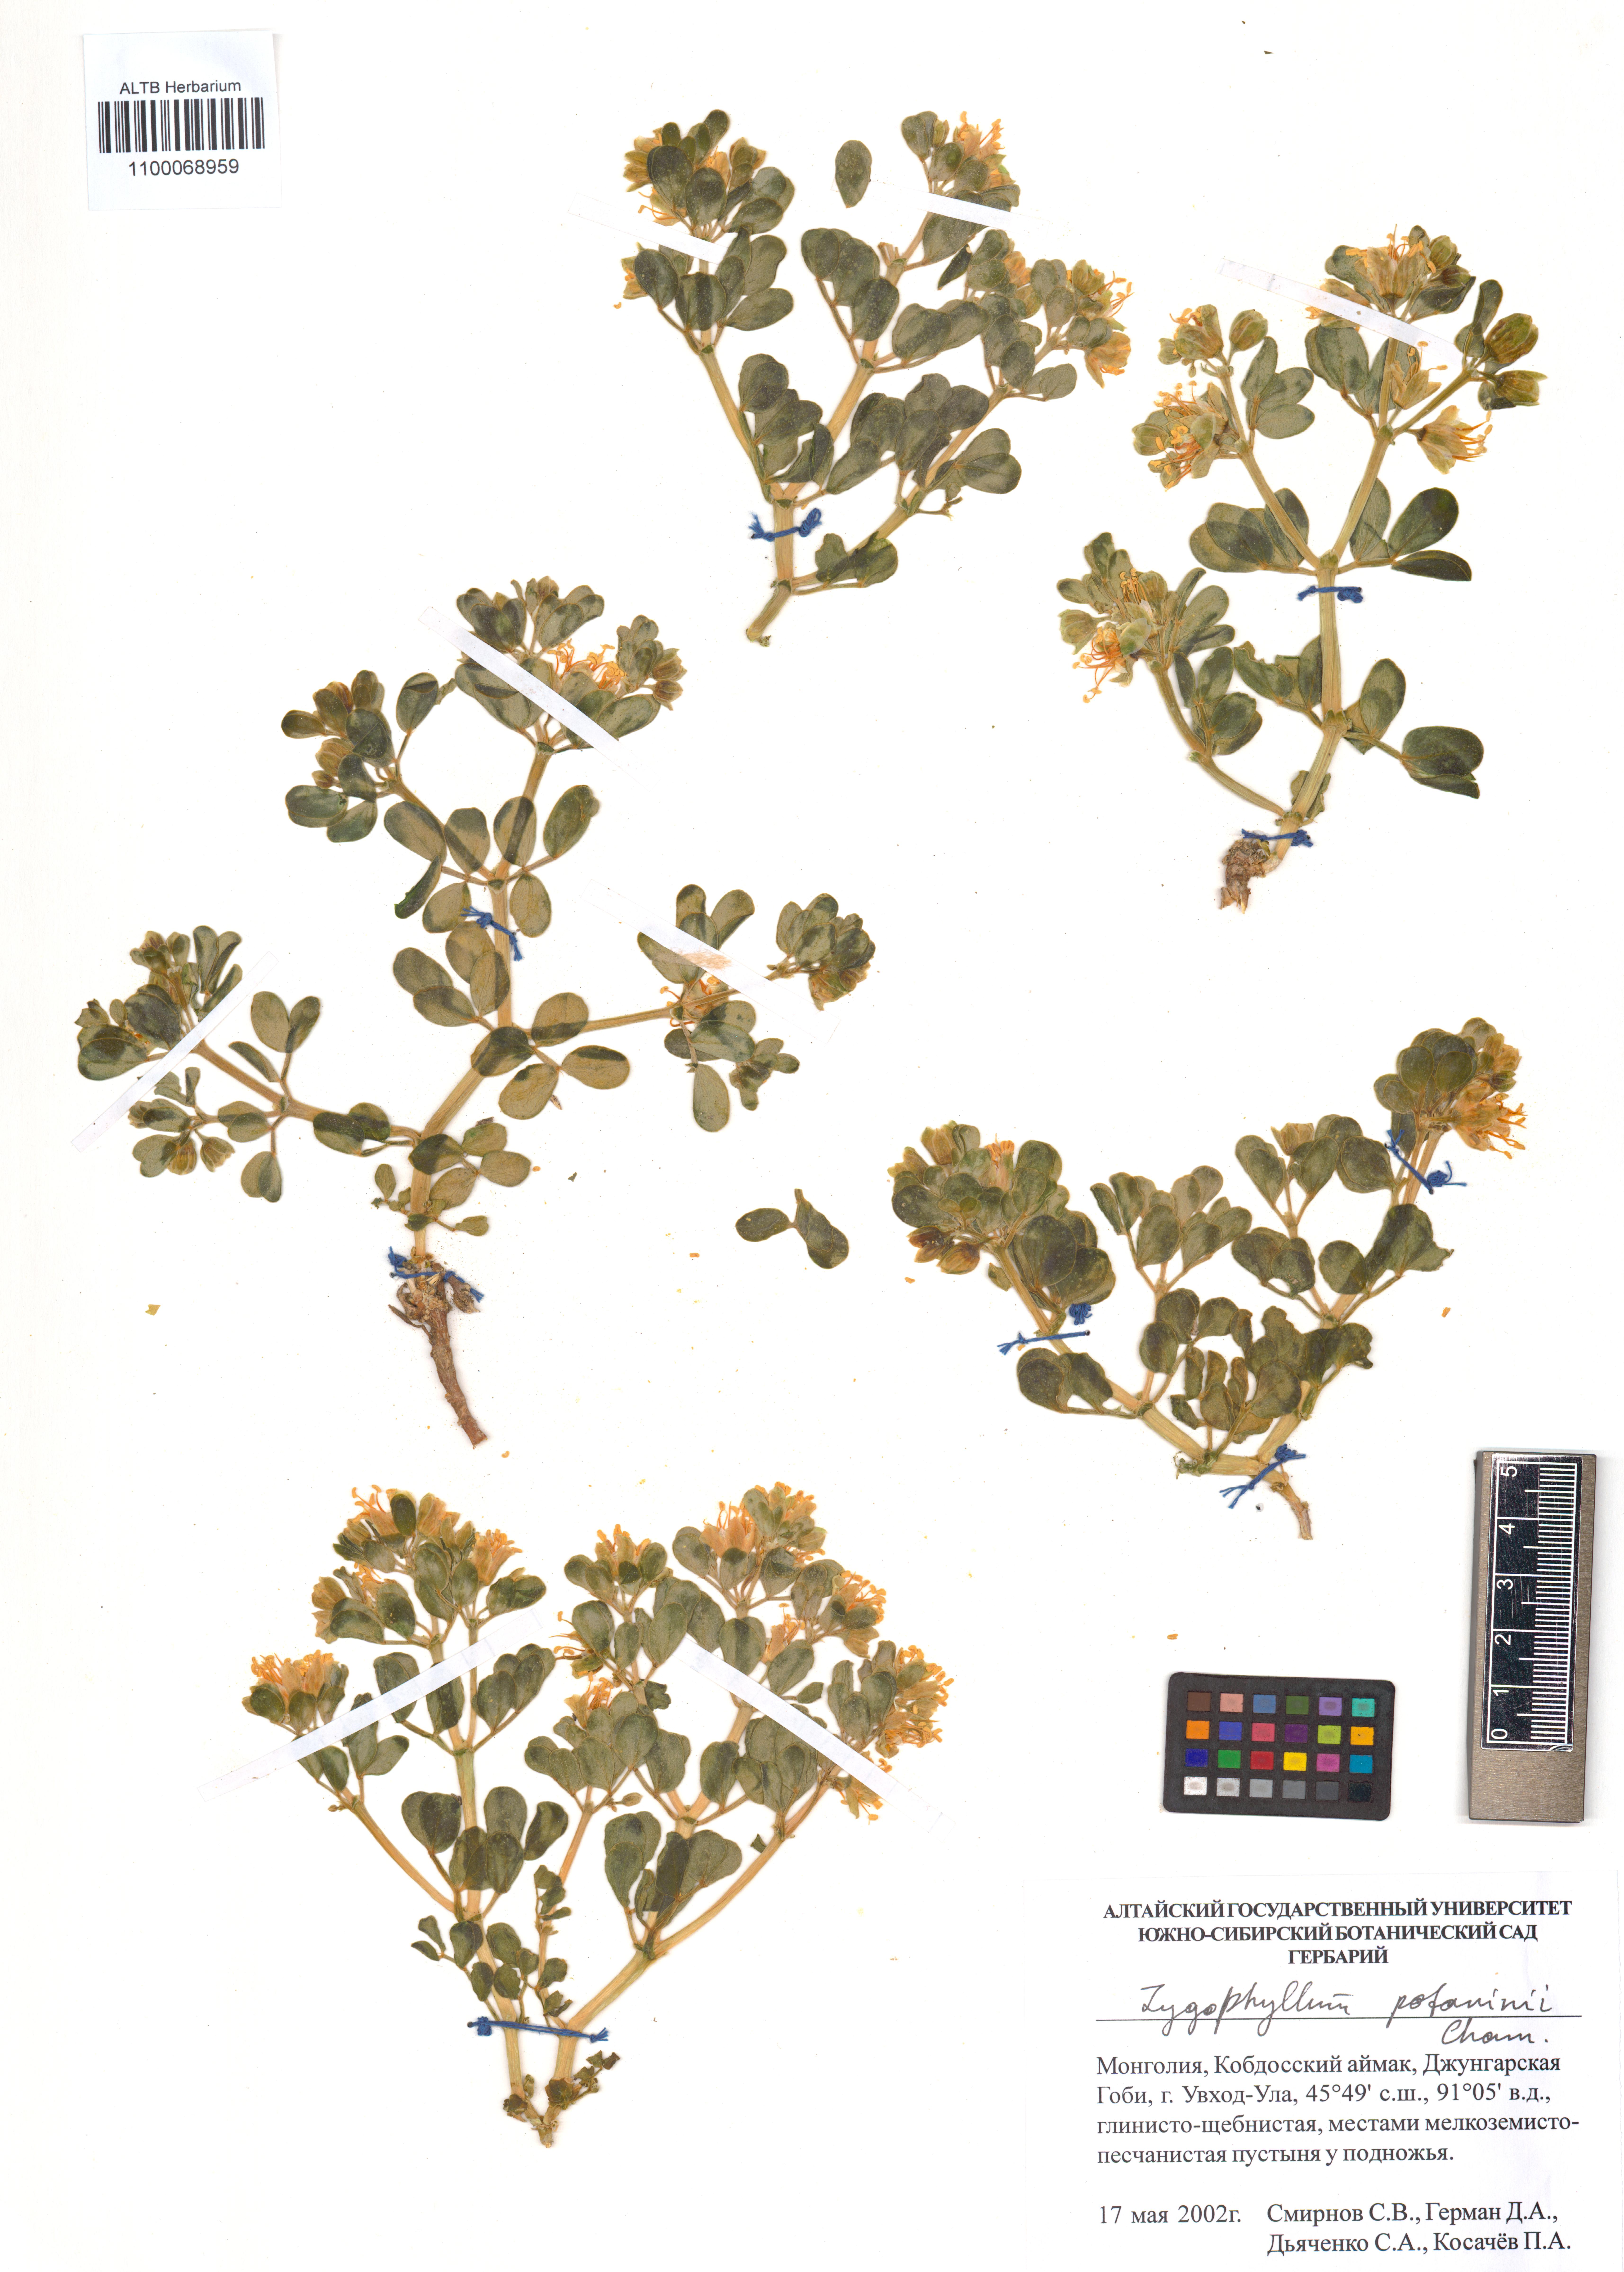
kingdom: Plantae
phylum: Tracheophyta
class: Magnoliopsida
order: Zygophyllales
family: Zygophyllaceae
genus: Zygophyllum
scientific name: Zygophyllum potaninii
